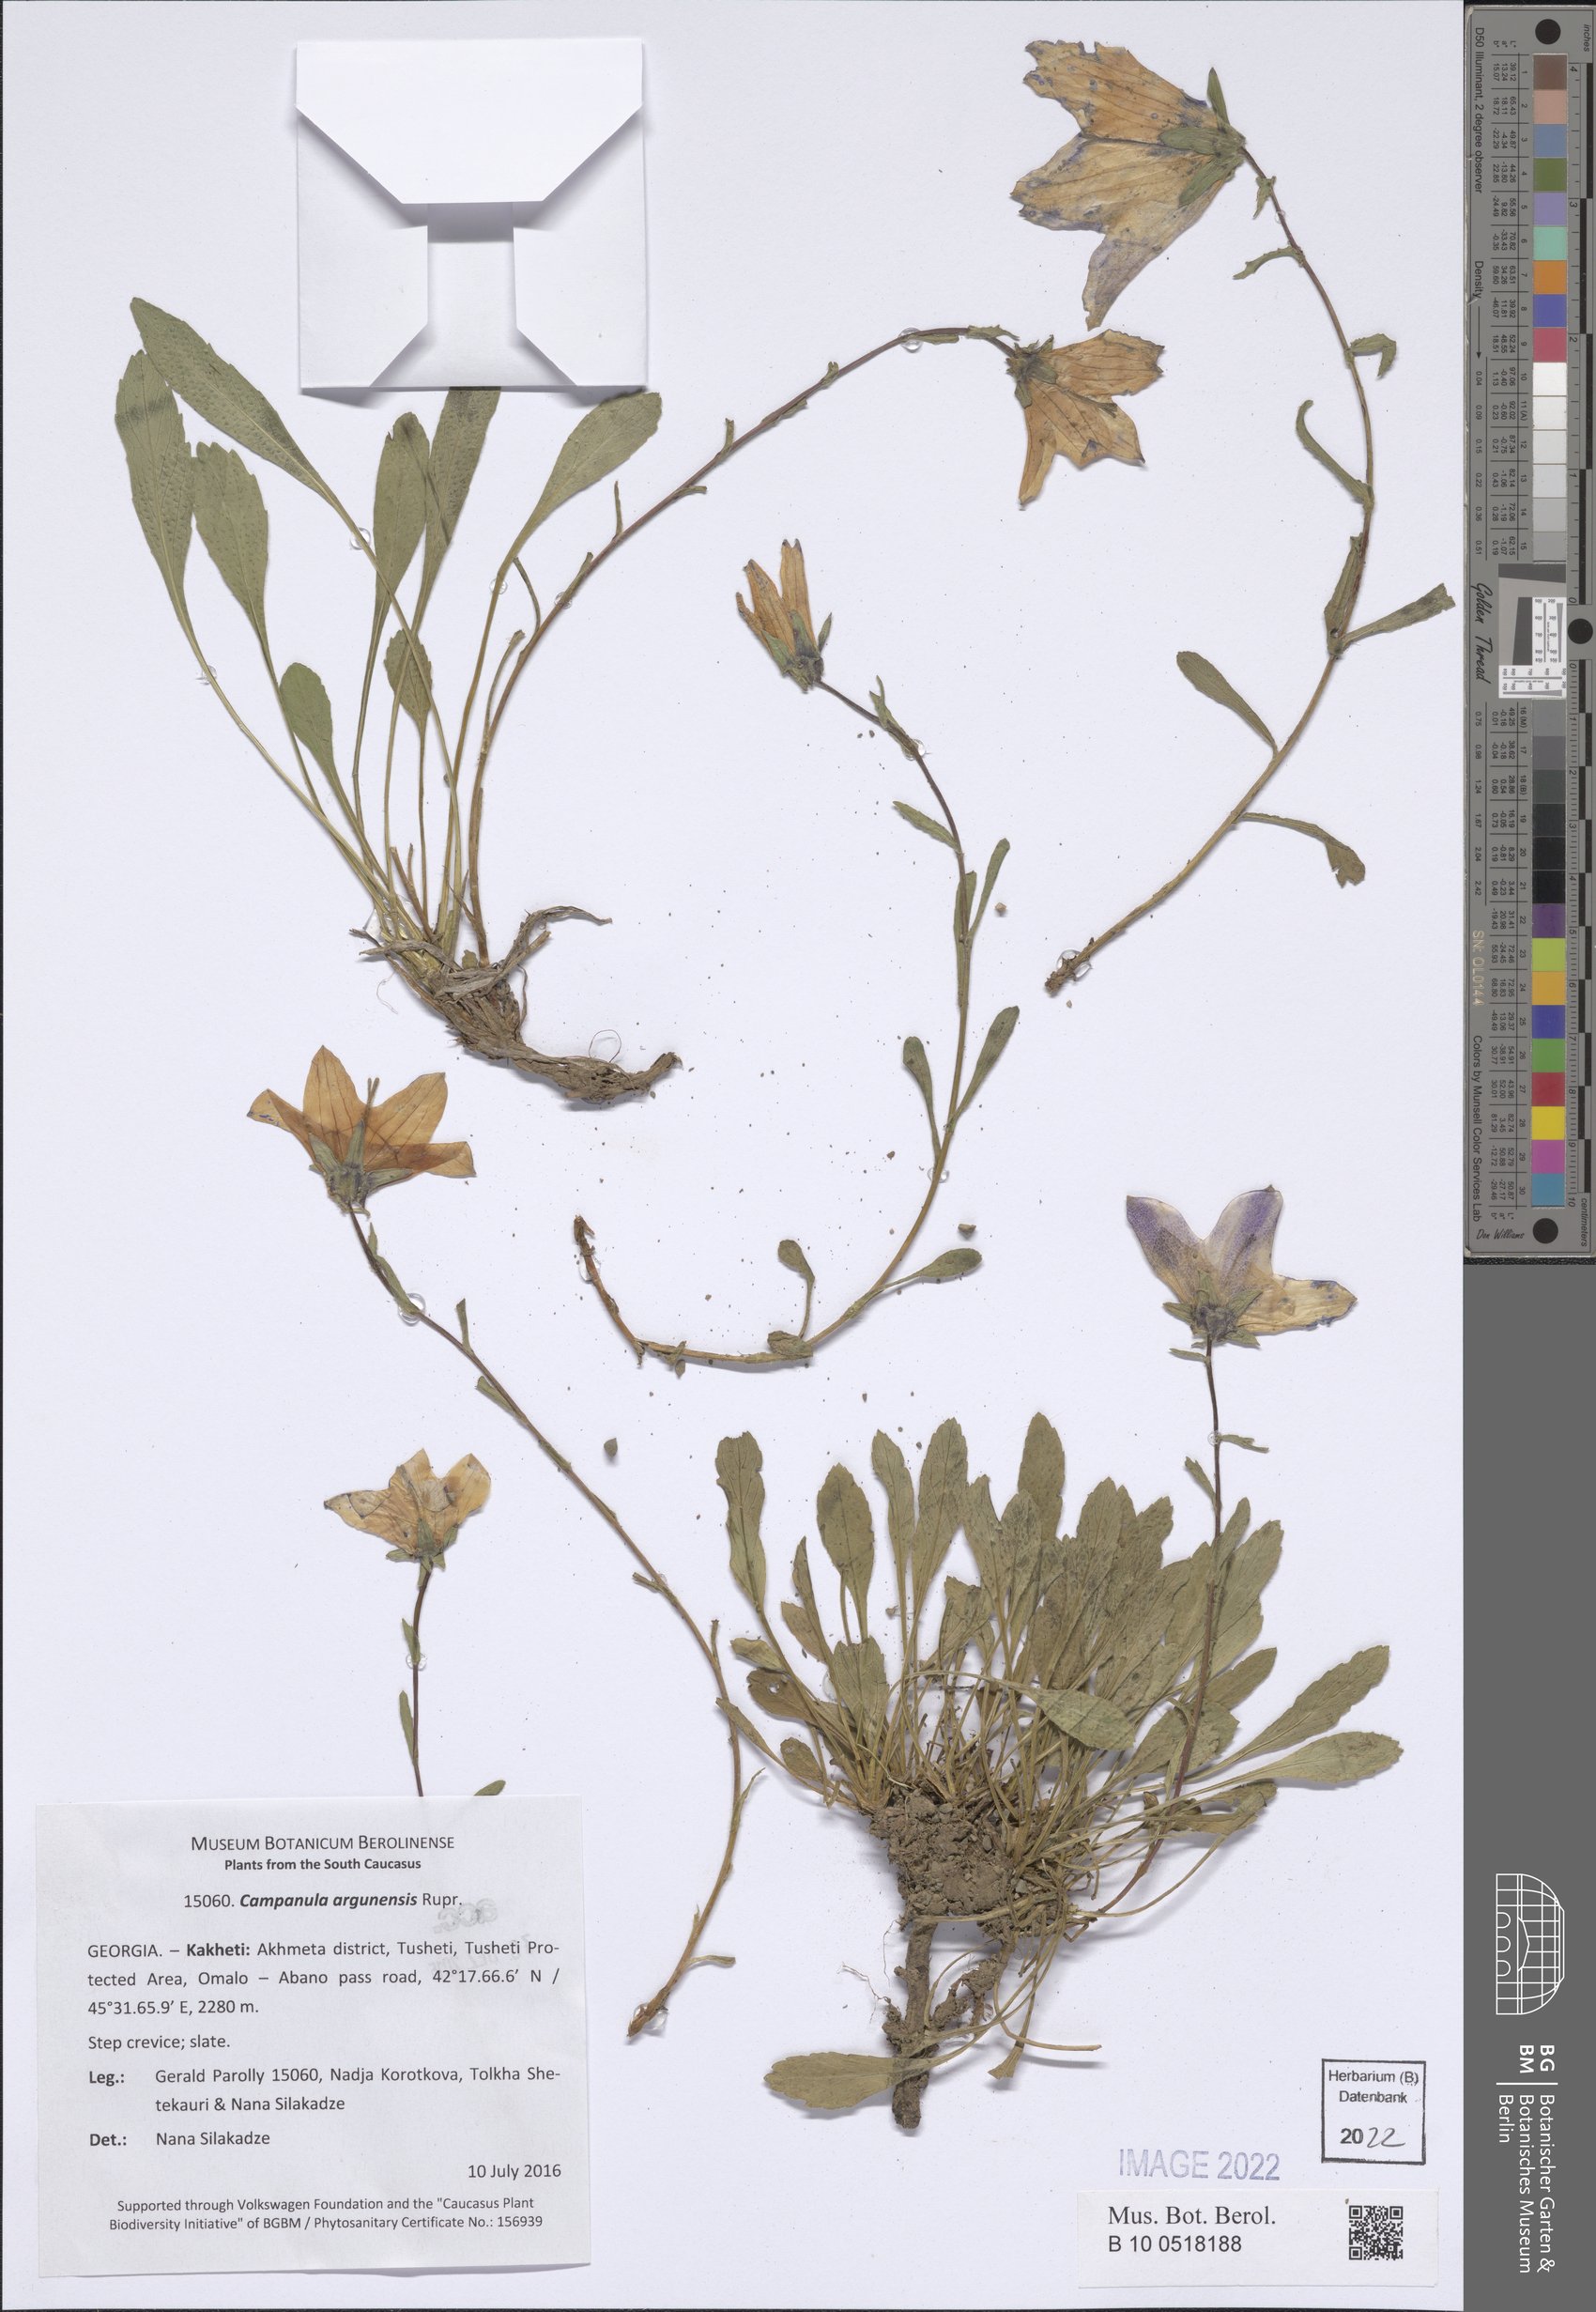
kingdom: Plantae
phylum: Tracheophyta
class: Magnoliopsida
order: Asterales
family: Campanulaceae
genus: Campanula
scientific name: Campanula saxifraga
